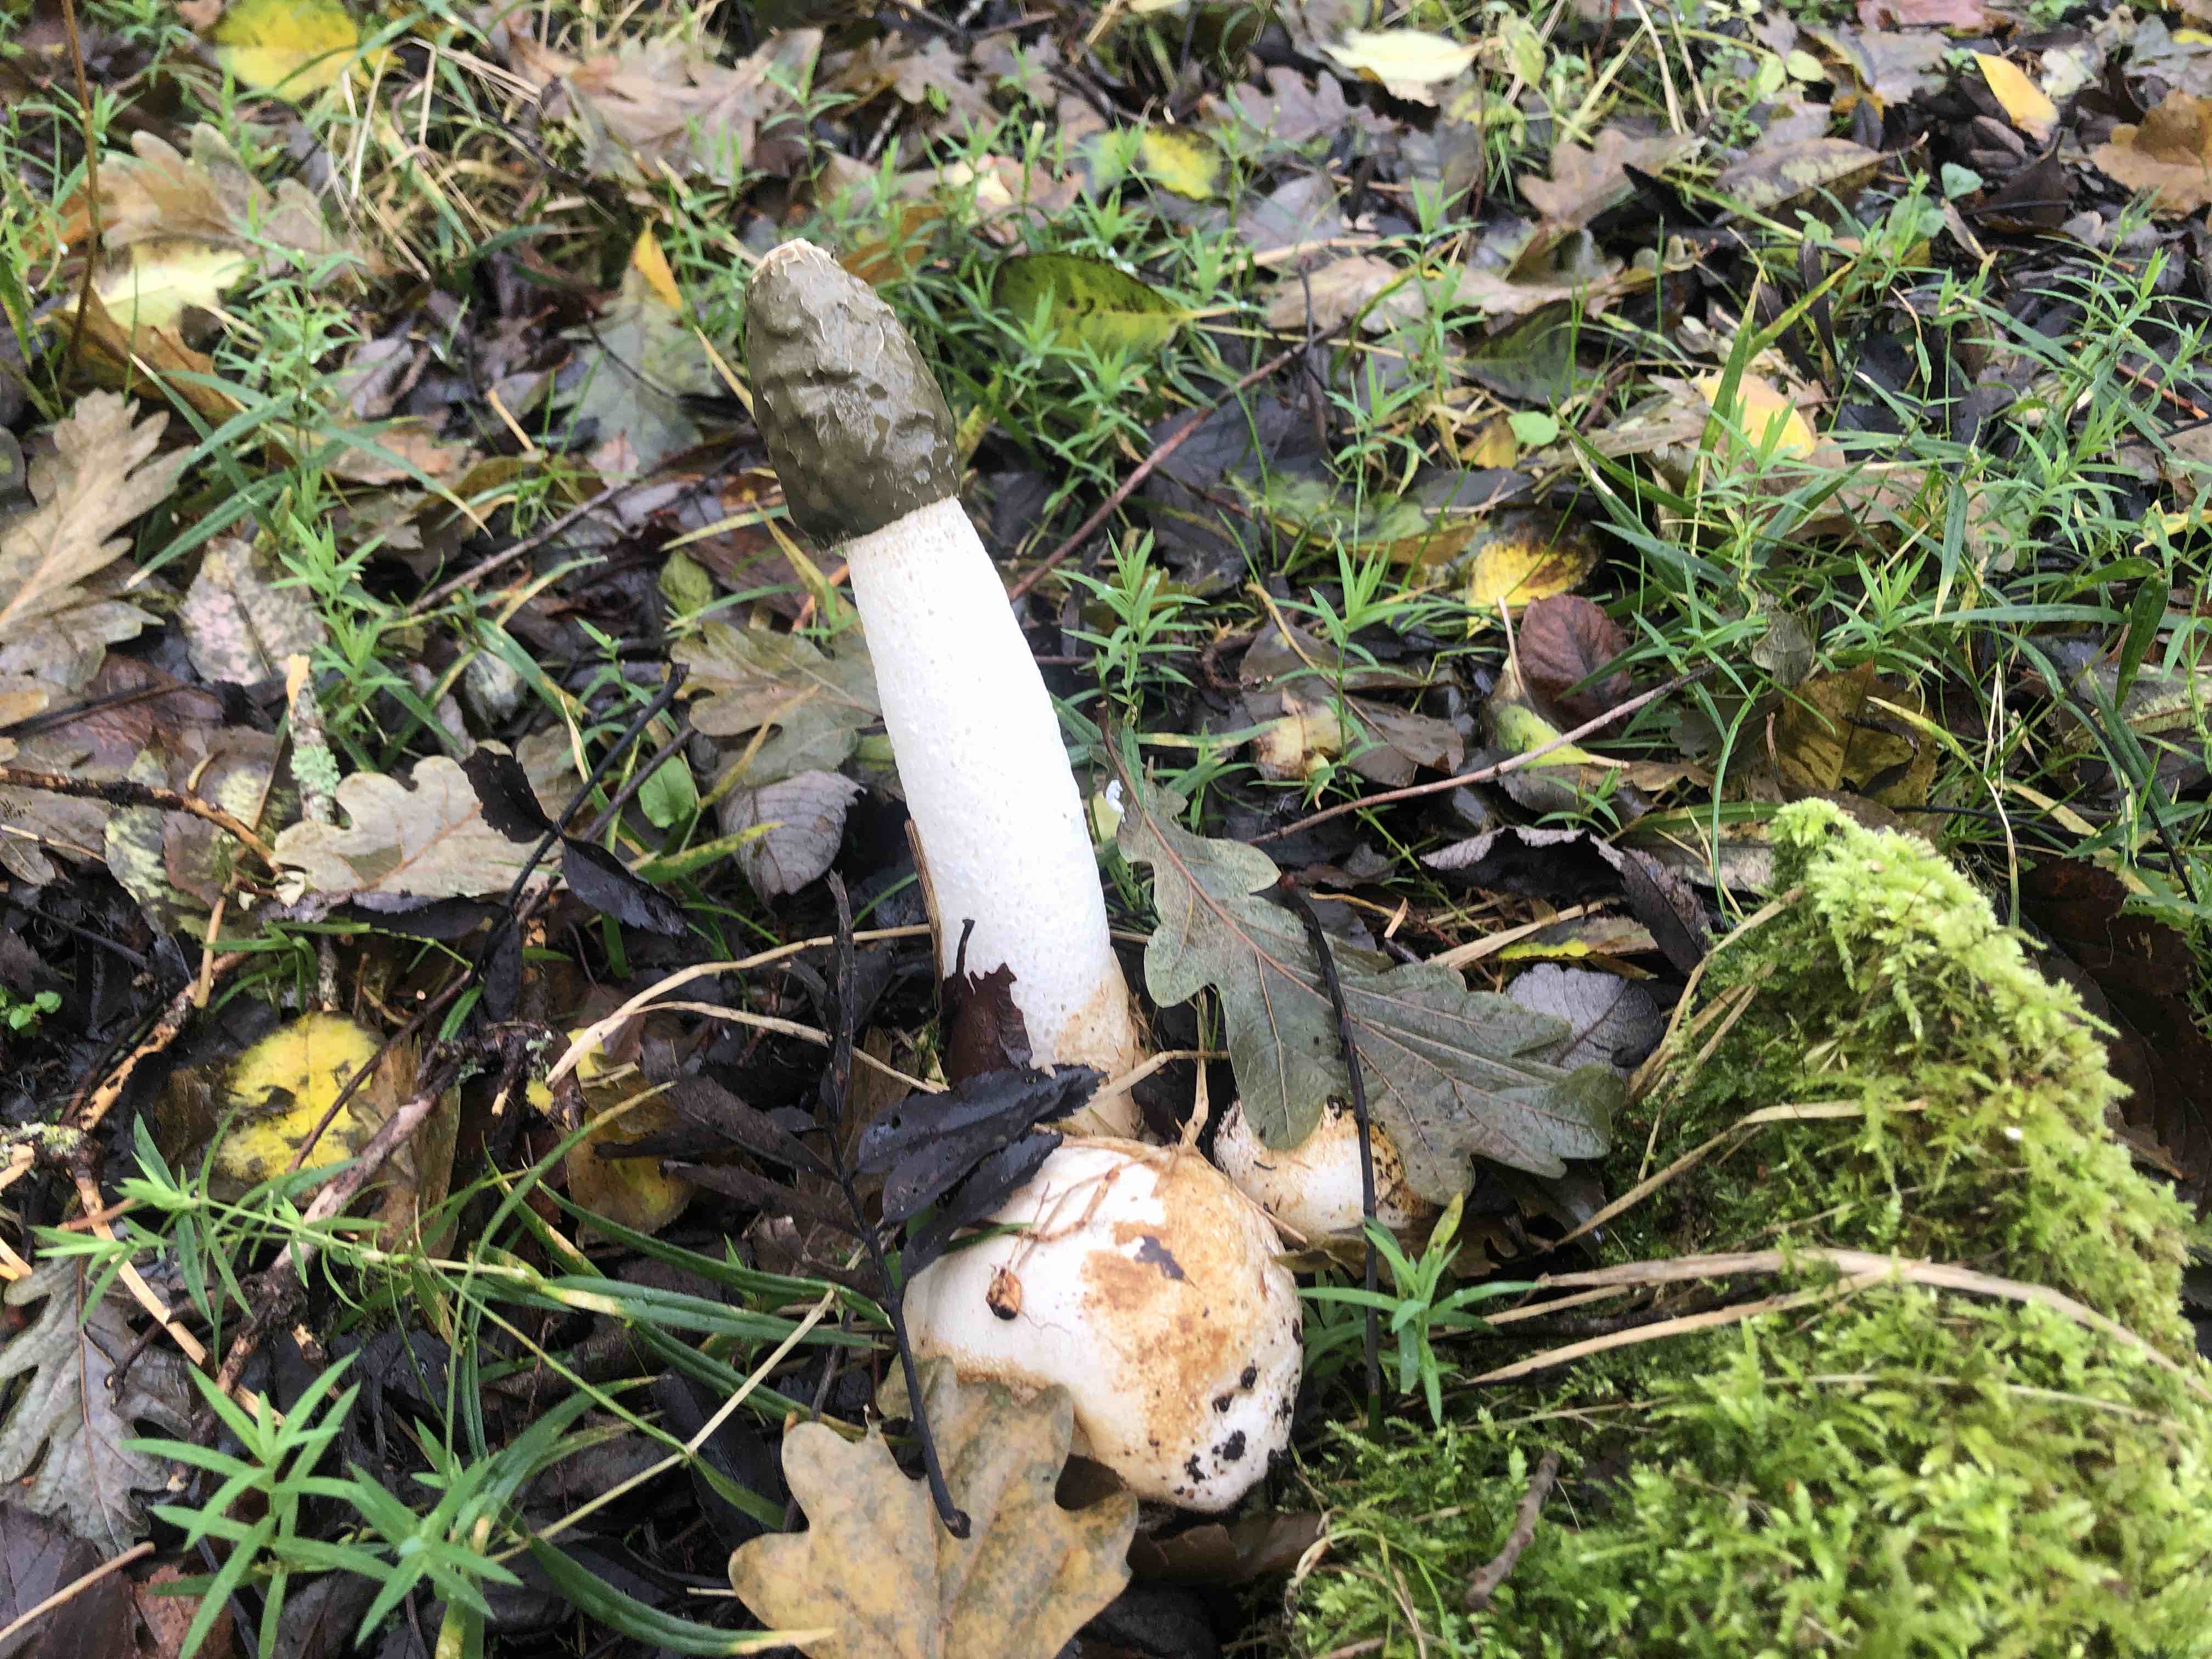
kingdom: Fungi
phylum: Basidiomycota
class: Agaricomycetes
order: Phallales
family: Phallaceae
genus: Phallus
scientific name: Phallus impudicus
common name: almindelig stinksvamp
